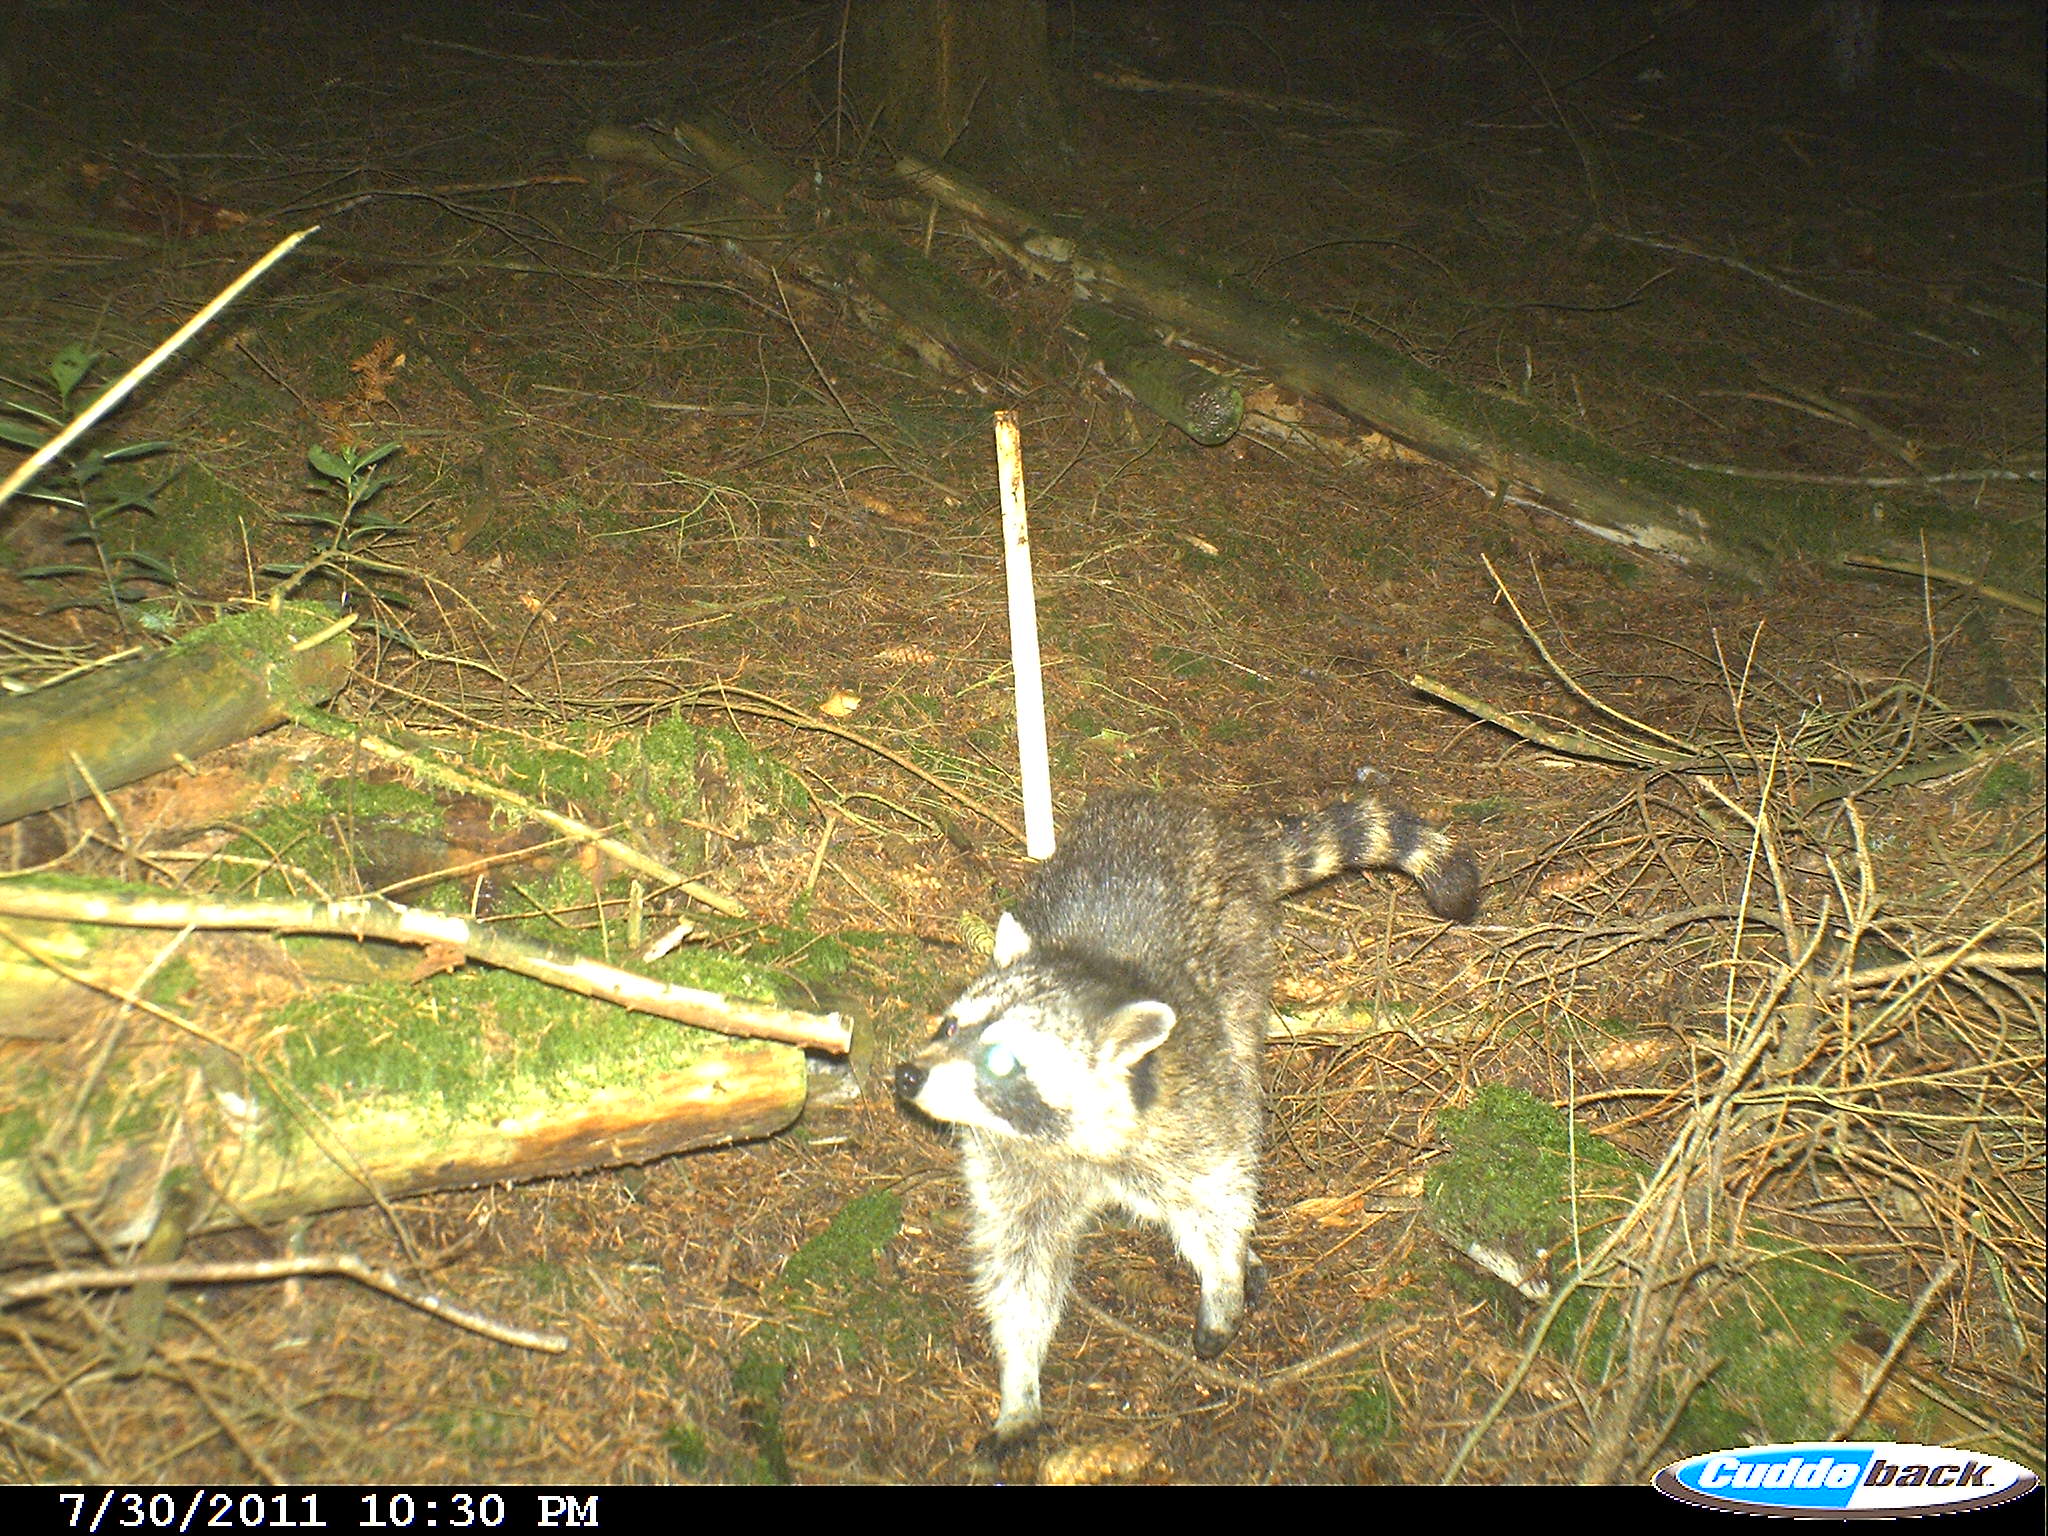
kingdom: Animalia
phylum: Chordata
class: Mammalia
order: Carnivora
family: Procyonidae
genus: Procyon
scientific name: Procyon lotor
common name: Raccoon
